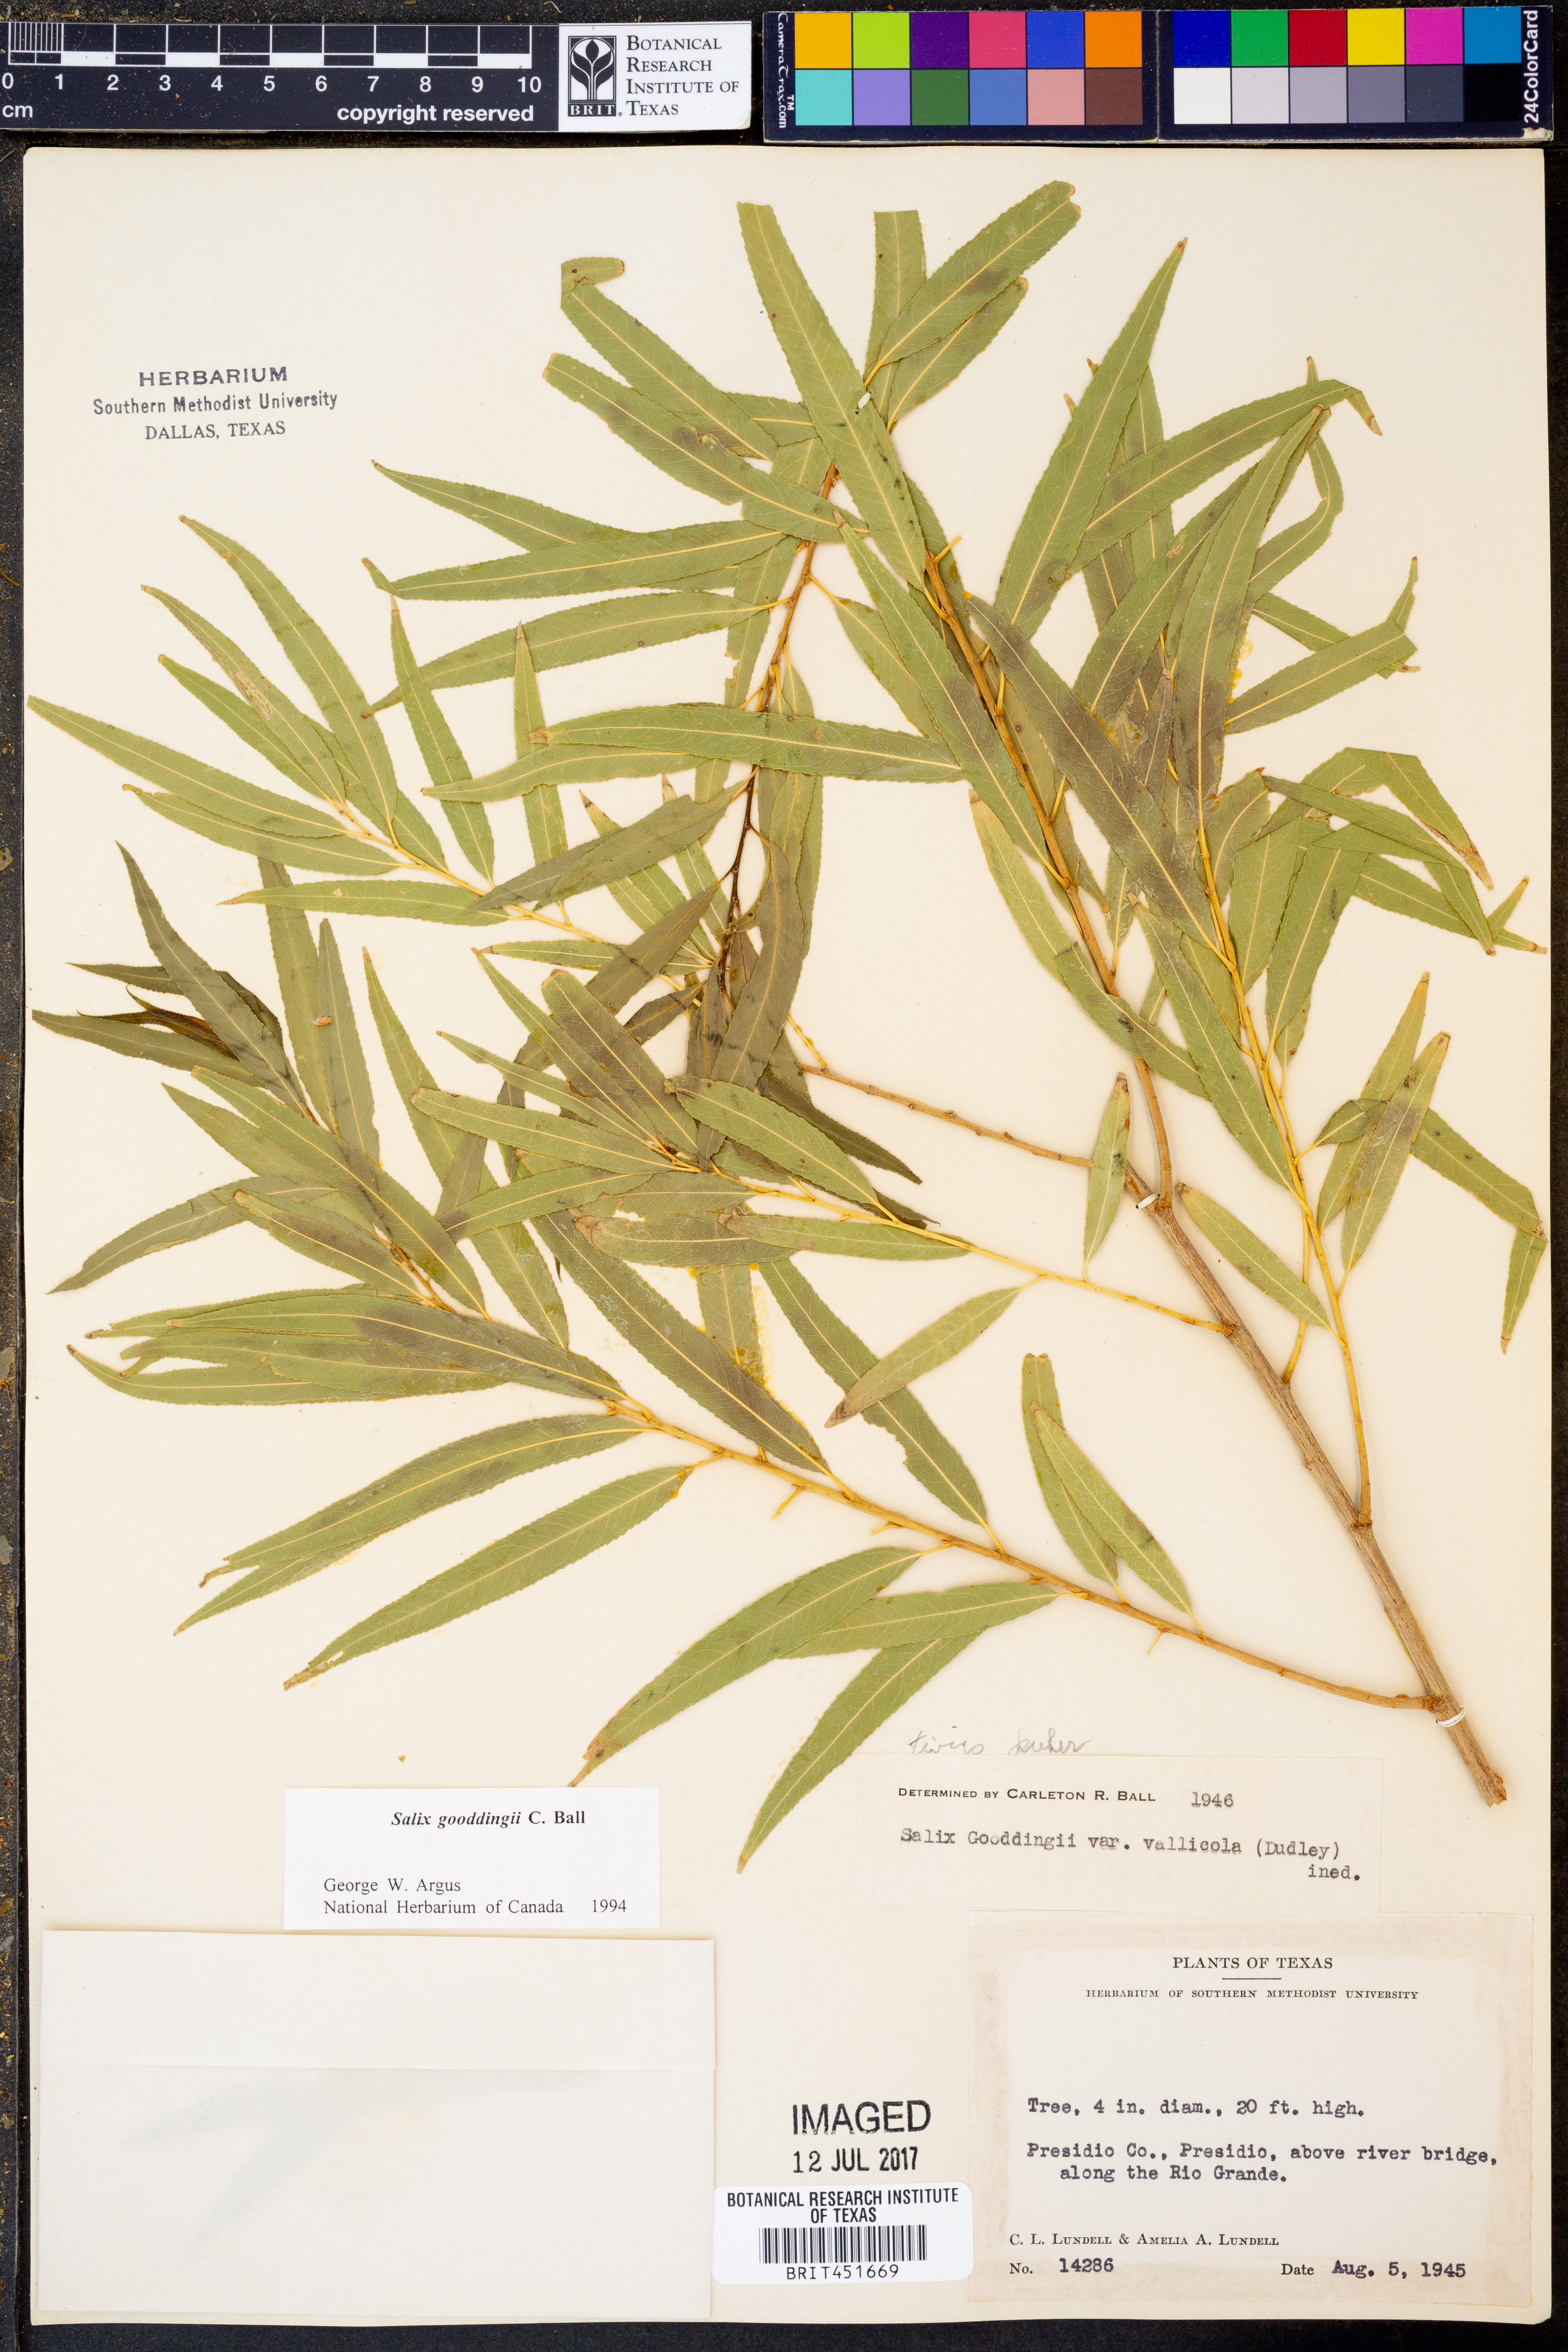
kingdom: Plantae
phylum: Tracheophyta
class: Magnoliopsida
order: Malpighiales
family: Salicaceae
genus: Salix
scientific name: Salix gooddingii
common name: Goodding's willow
